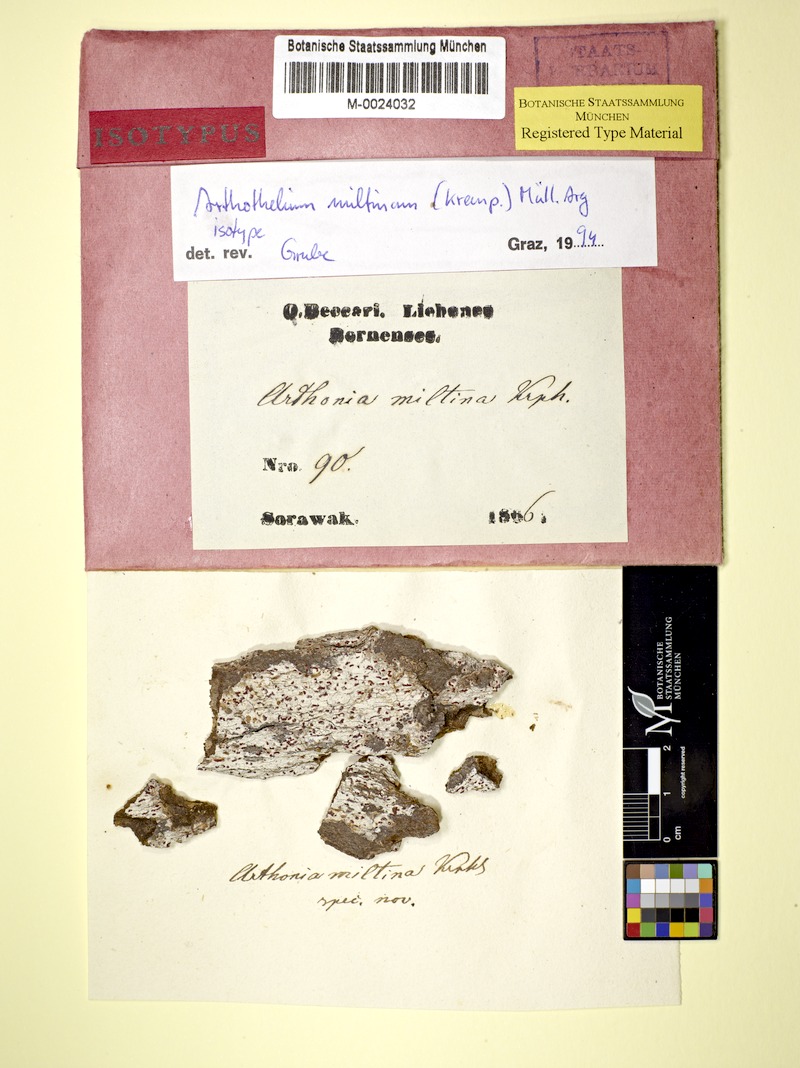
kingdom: Fungi
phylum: Ascomycota
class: Arthoniomycetes
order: Arthoniales
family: Arthoniaceae
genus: Arthothelium
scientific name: Arthothelium
